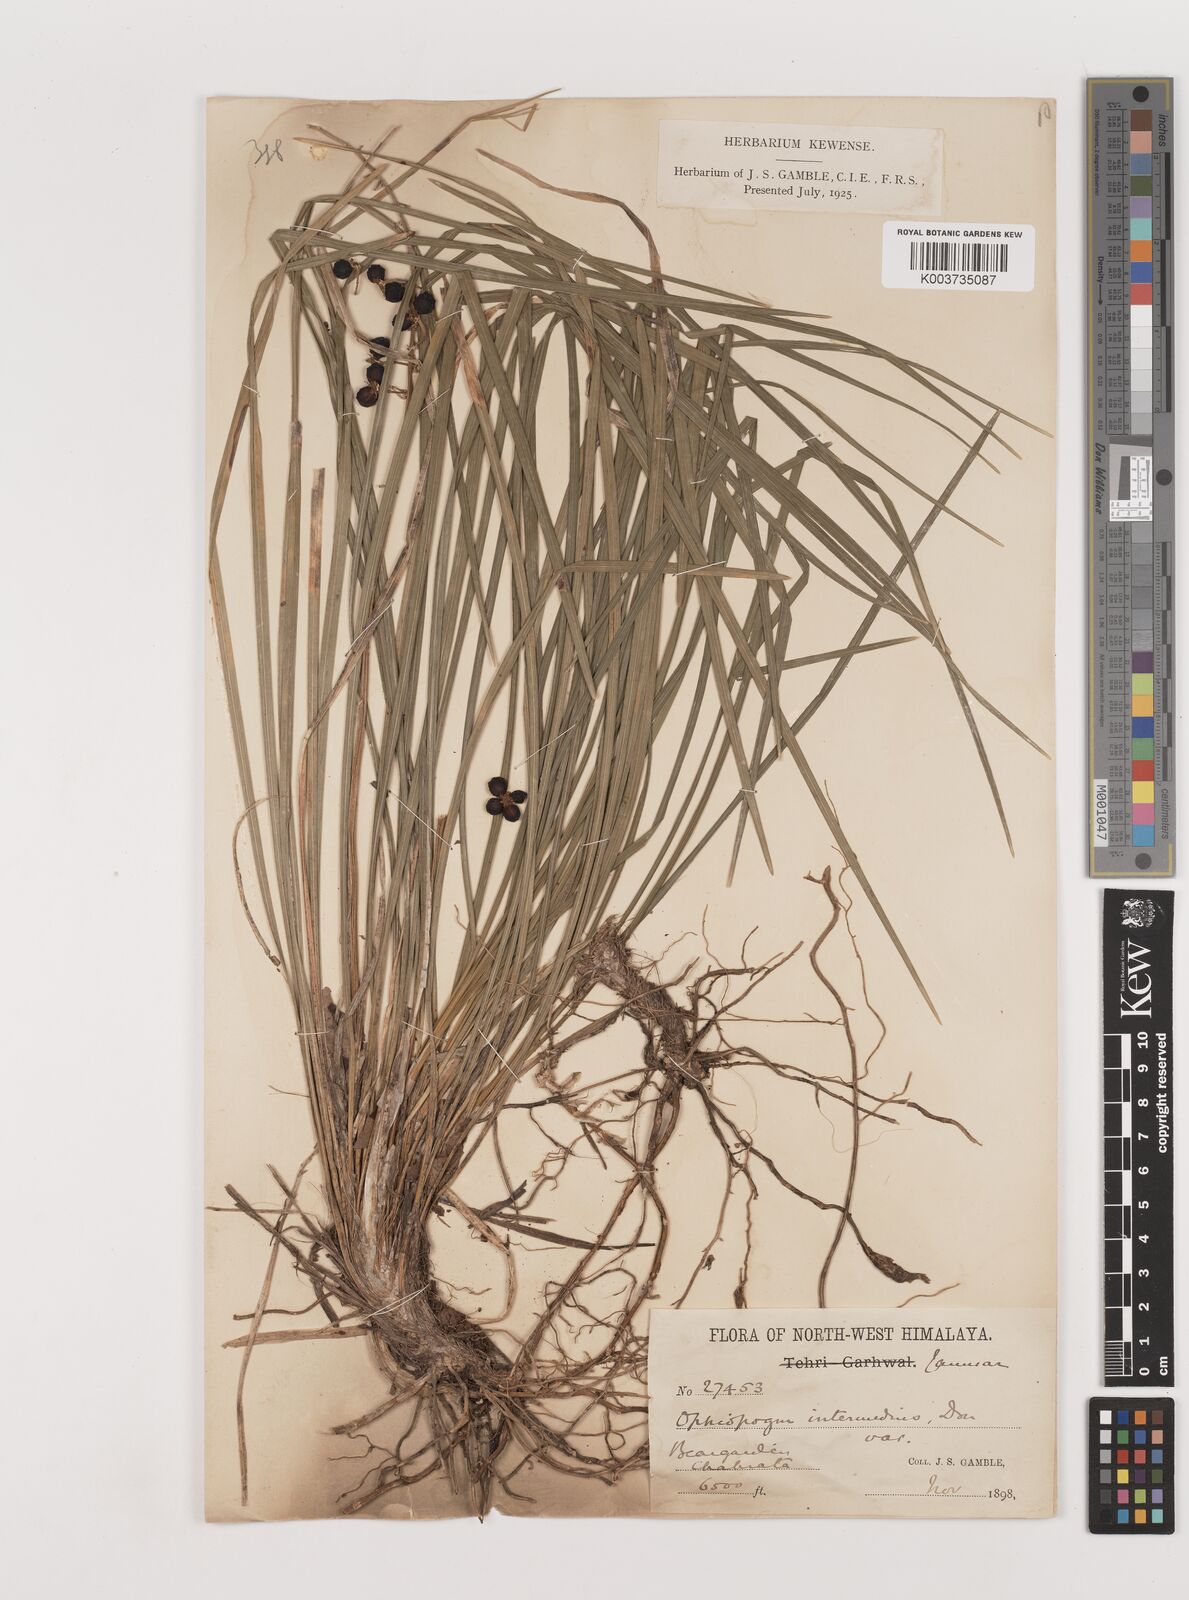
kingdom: Plantae
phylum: Tracheophyta
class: Liliopsida
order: Asparagales
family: Asparagaceae
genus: Ophiopogon
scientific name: Ophiopogon
